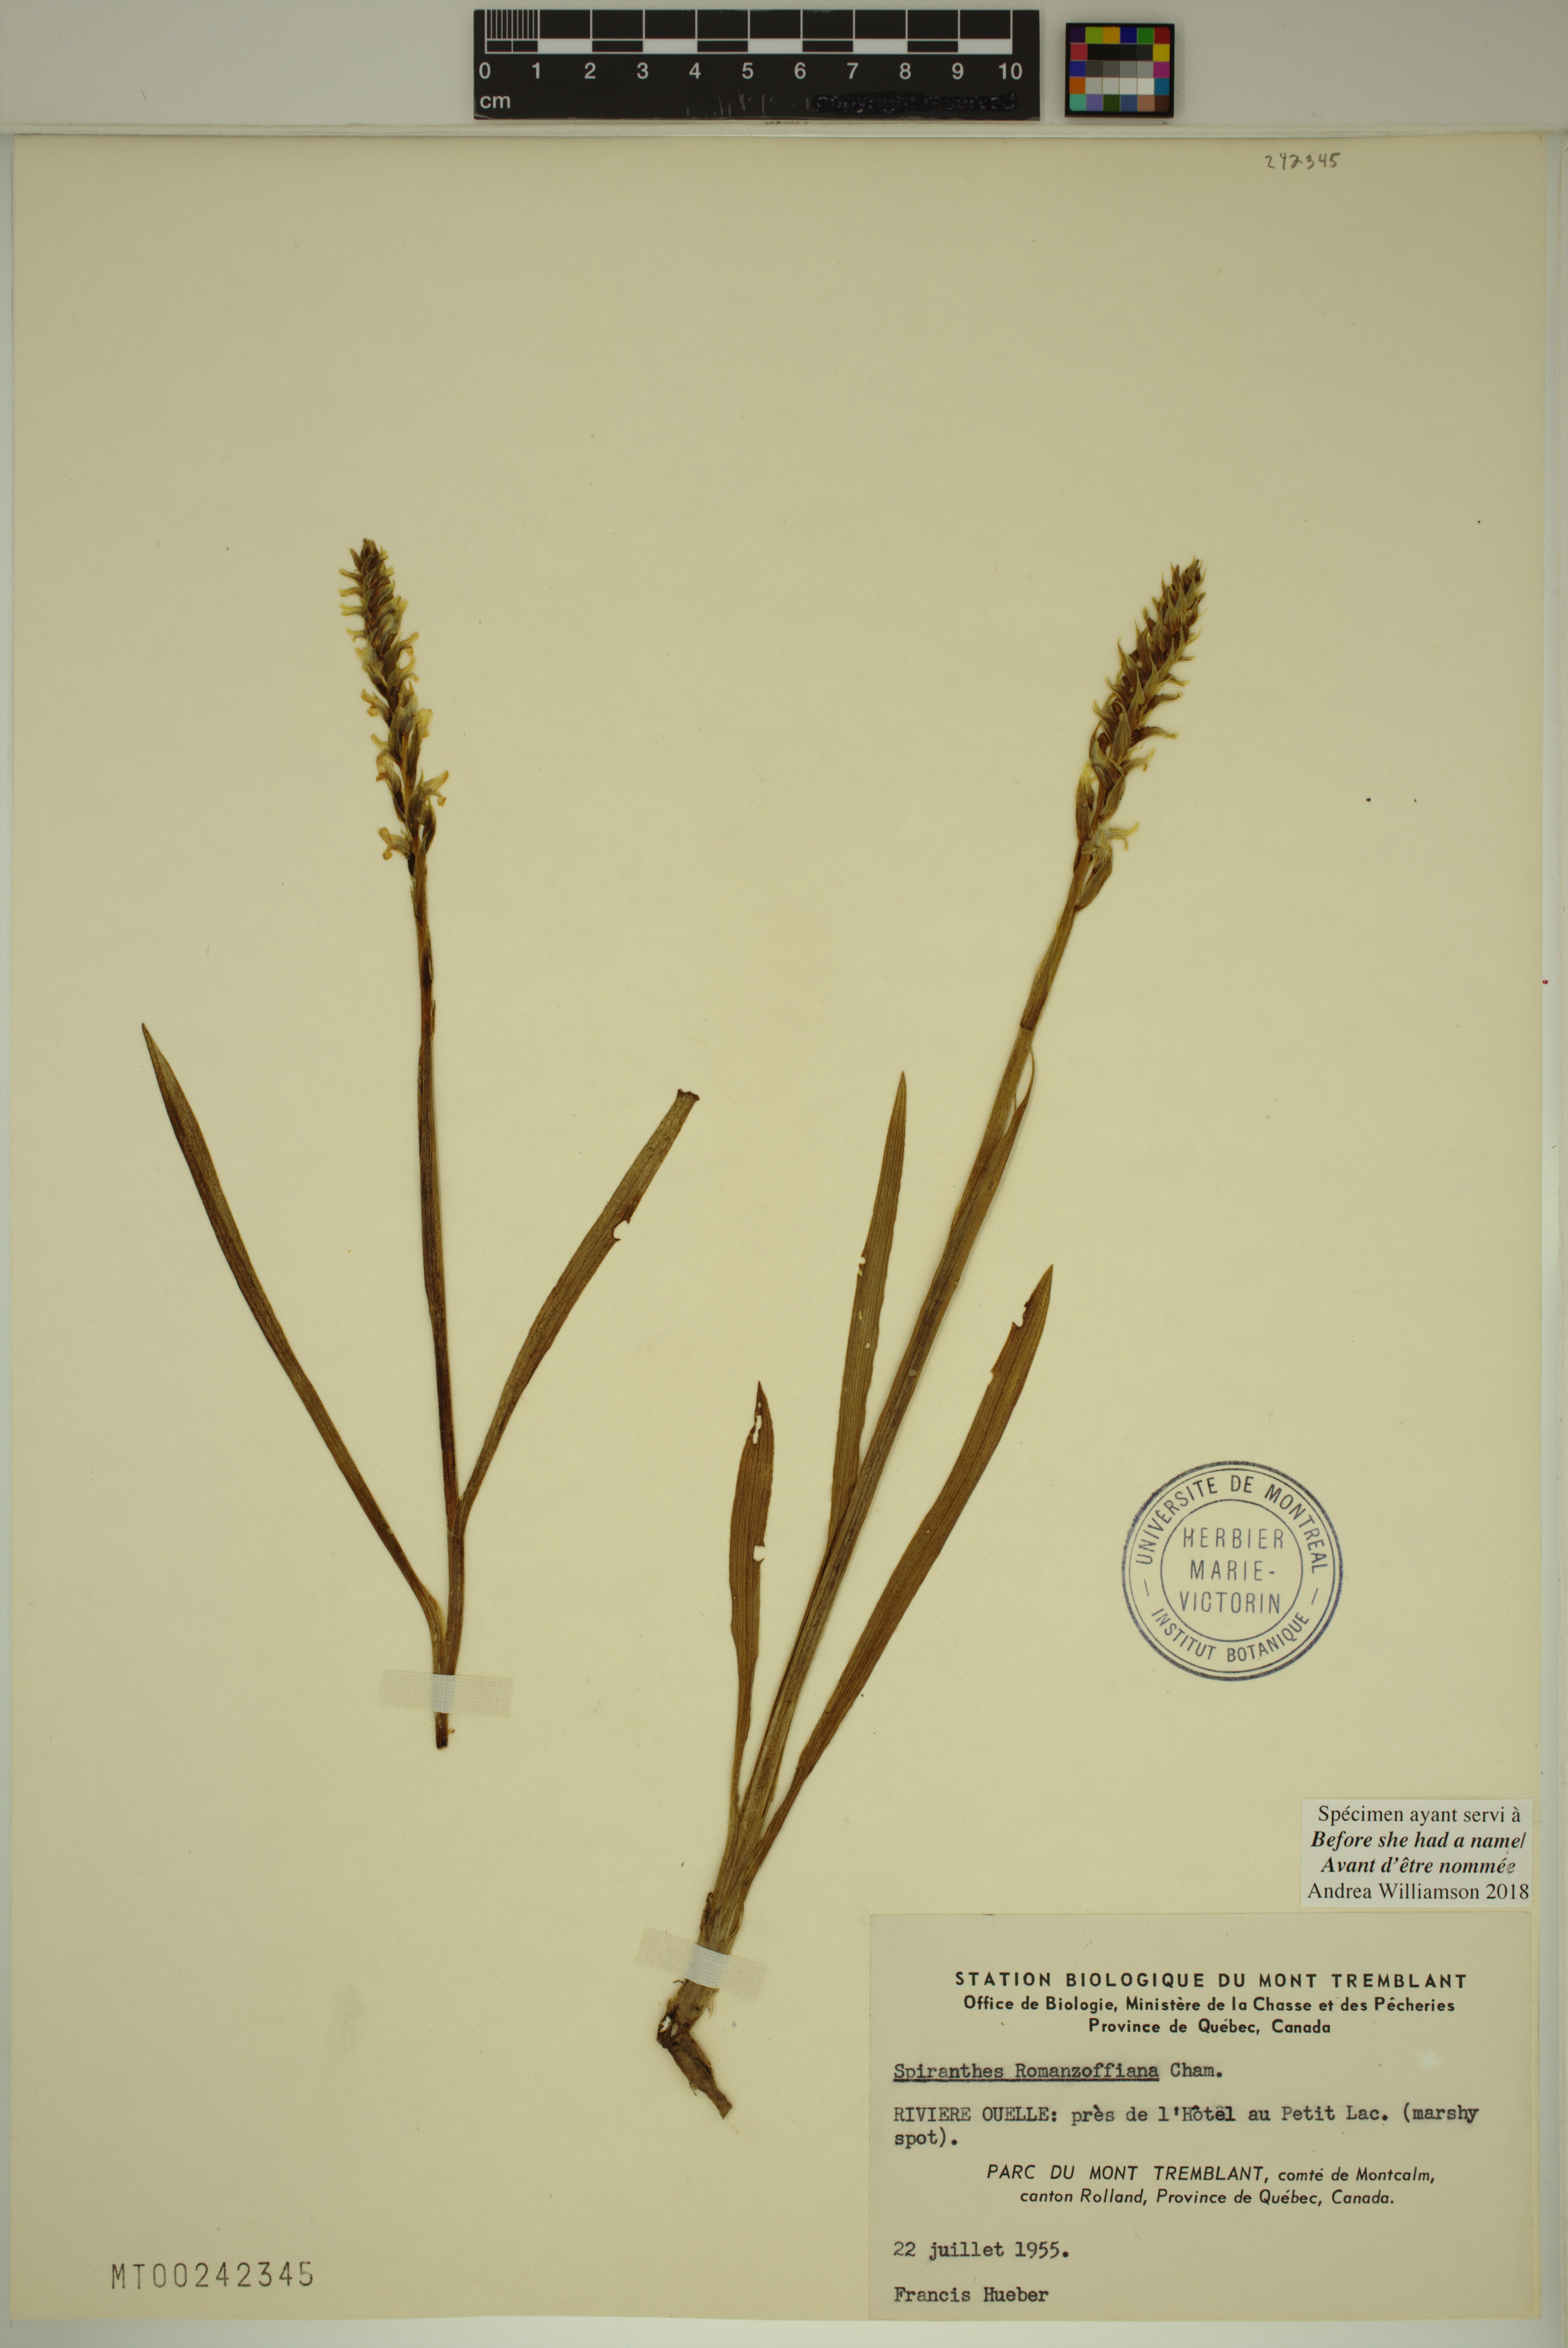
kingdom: Plantae
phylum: Tracheophyta
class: Liliopsida
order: Asparagales
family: Orchidaceae
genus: Spiranthes
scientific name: Spiranthes romanzoffiana
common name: Irish lady's-tresses
